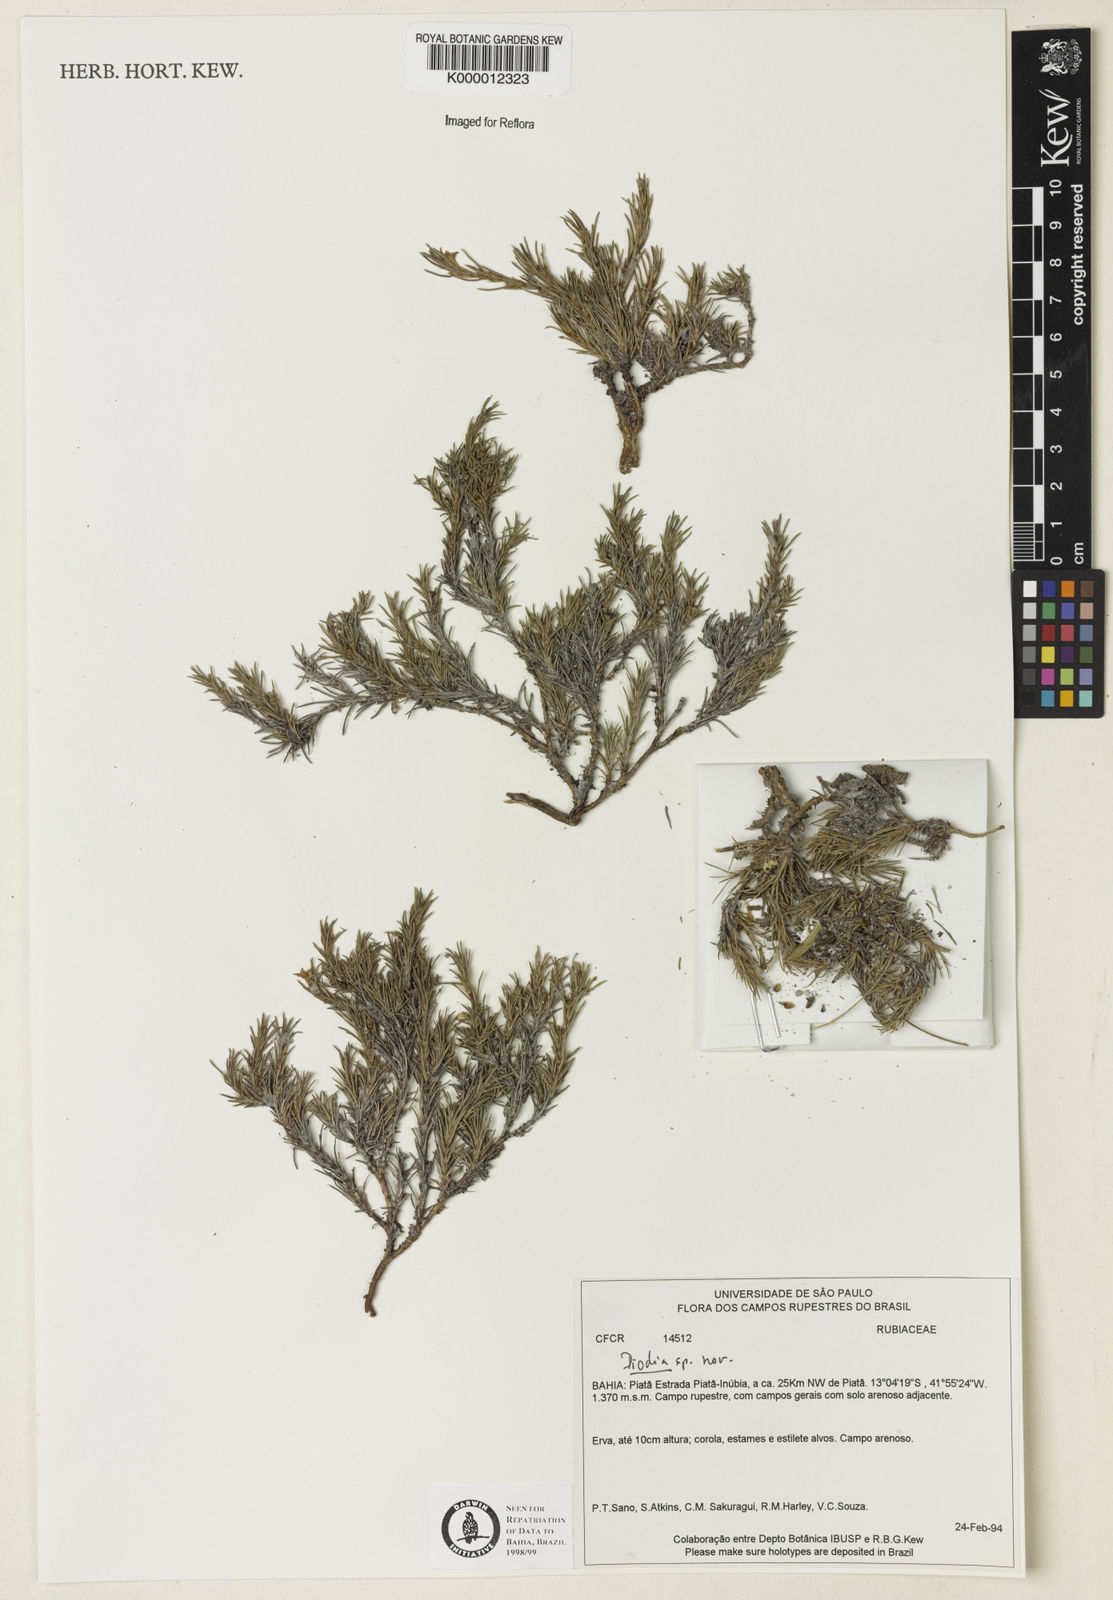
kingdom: Plantae
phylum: Tracheophyta
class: Magnoliopsida
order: Gentianales
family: Rubiaceae
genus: Diodia
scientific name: Diodia
